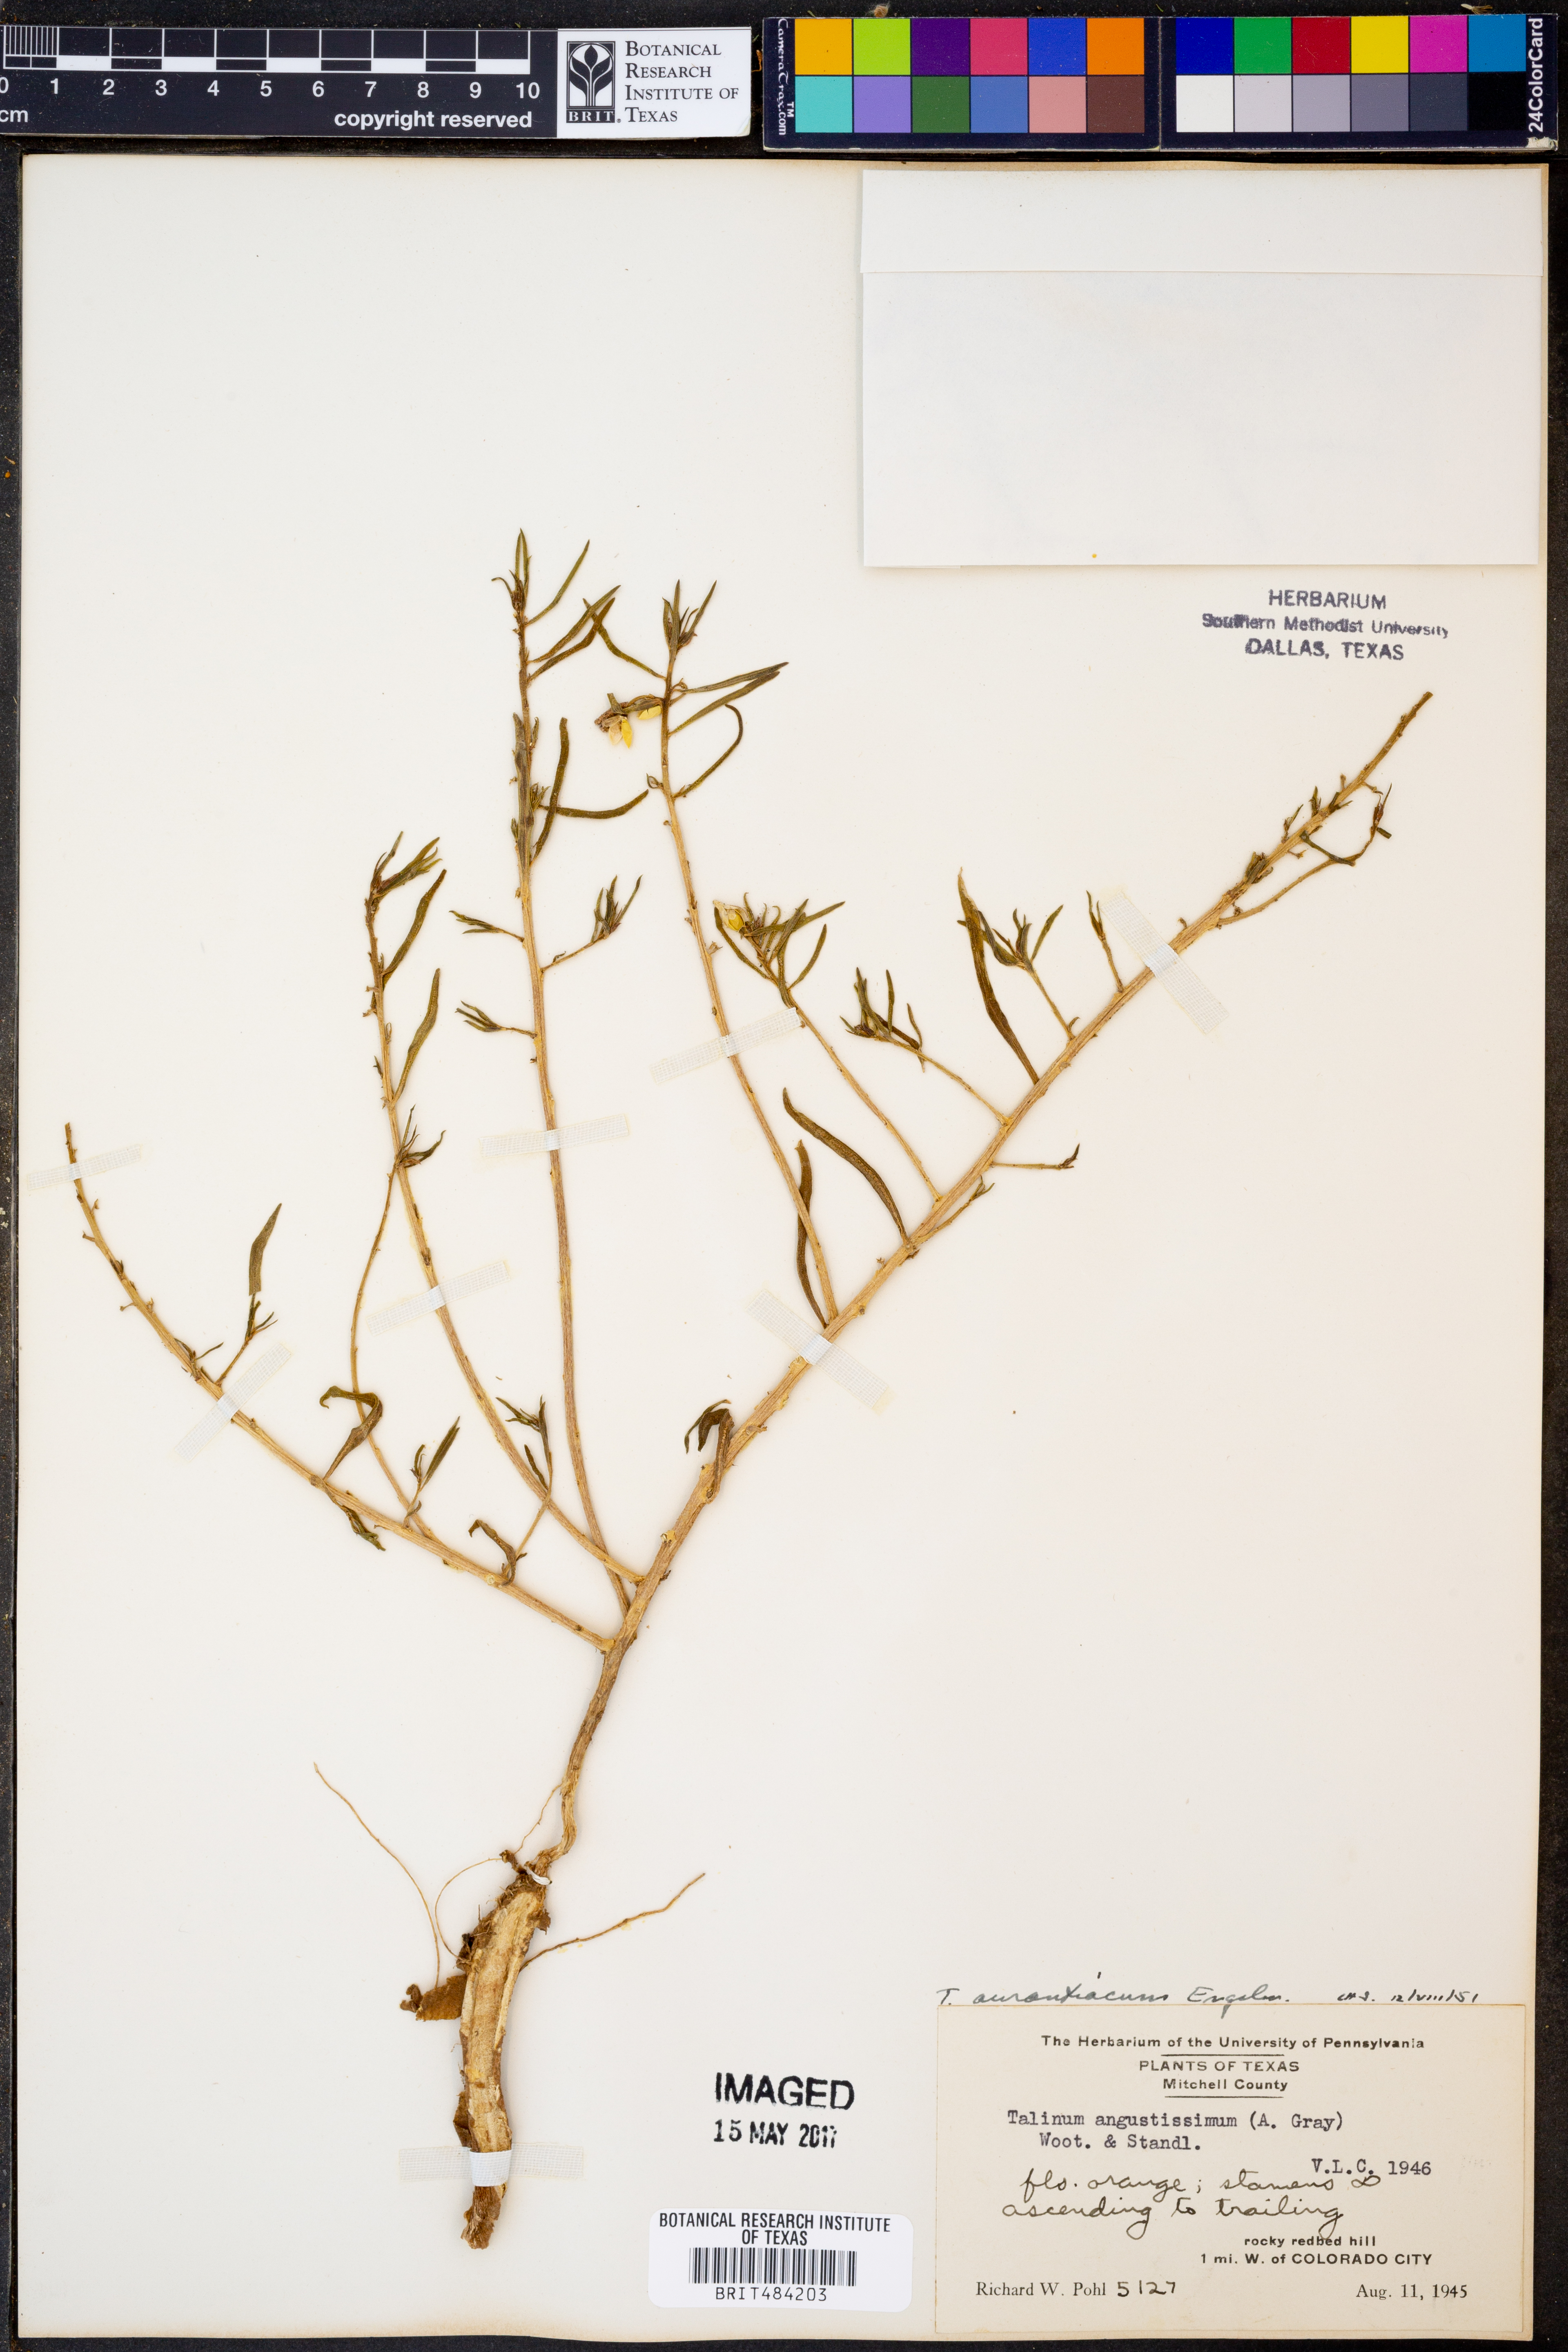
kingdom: Plantae
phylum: Tracheophyta
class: Magnoliopsida
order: Caryophyllales
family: Montiaceae
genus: Phemeranthus
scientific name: Phemeranthus aurantiacus
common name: Orange fameflower
